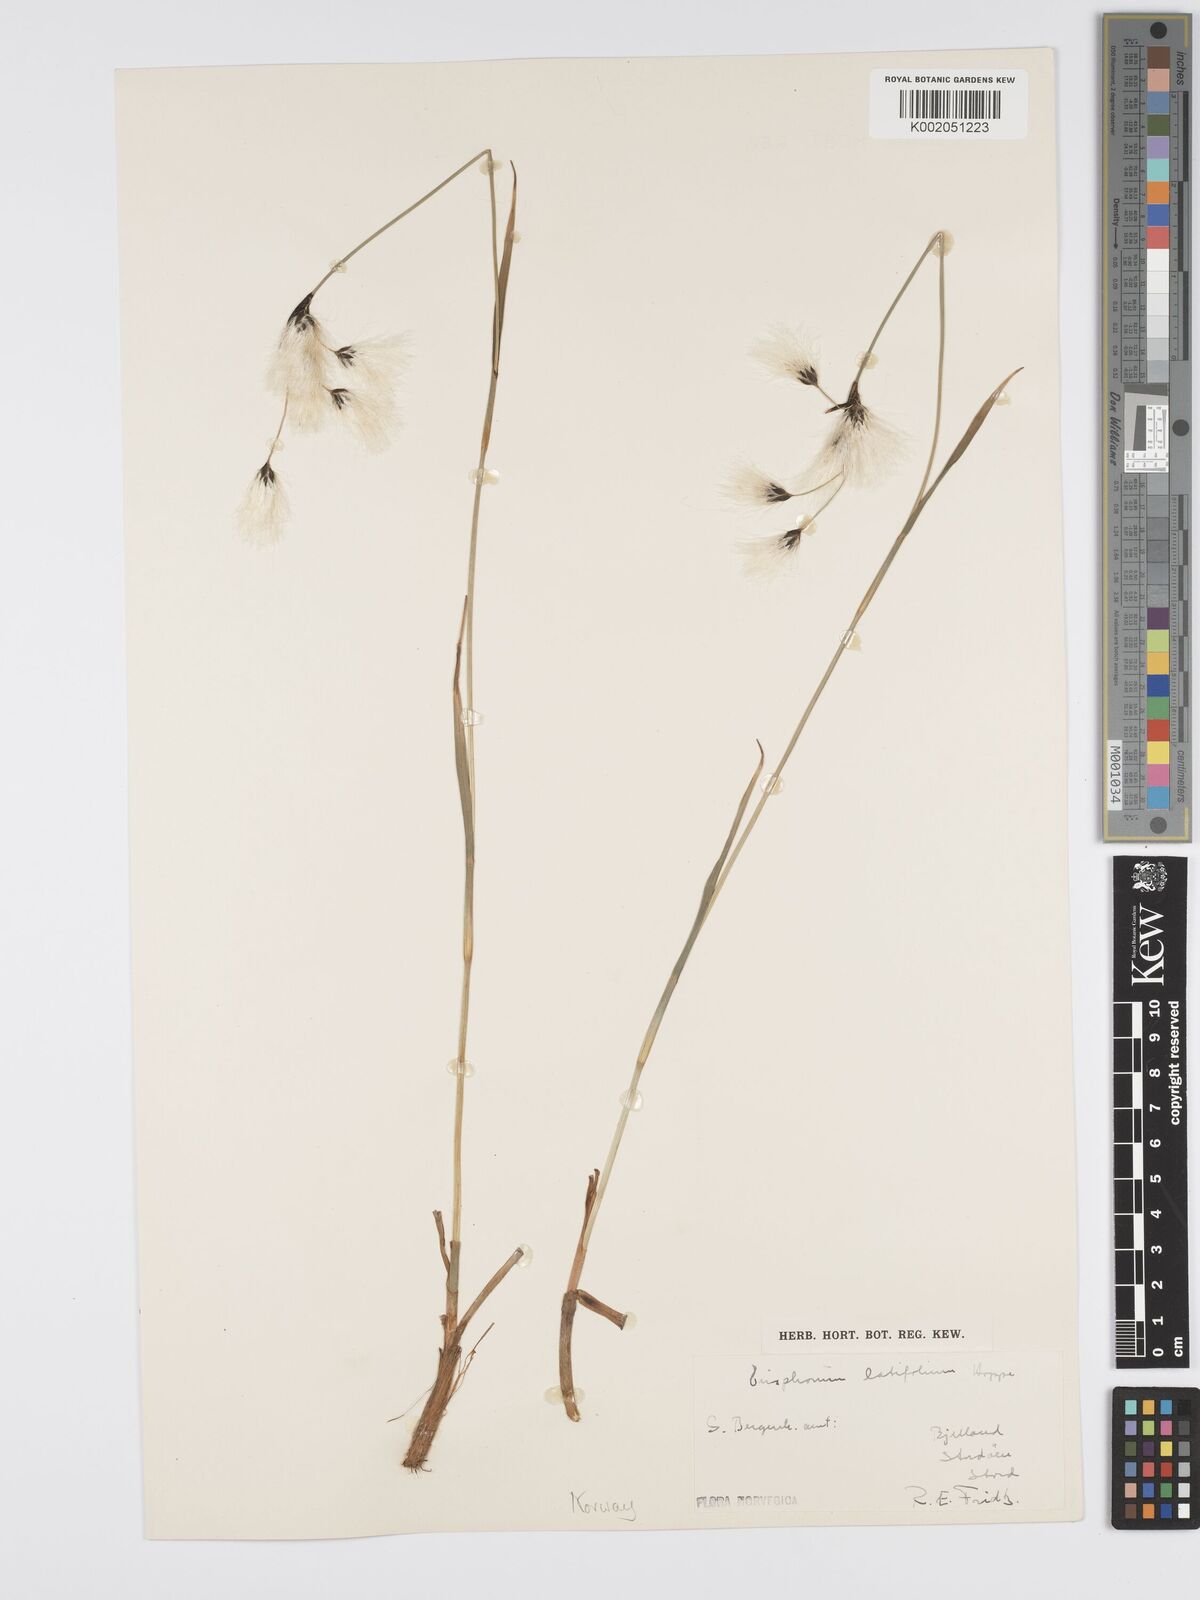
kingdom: Plantae
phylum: Tracheophyta
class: Liliopsida
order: Poales
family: Cyperaceae
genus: Eriophorum
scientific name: Eriophorum latifolium
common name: Broad-leaved cottongrass
